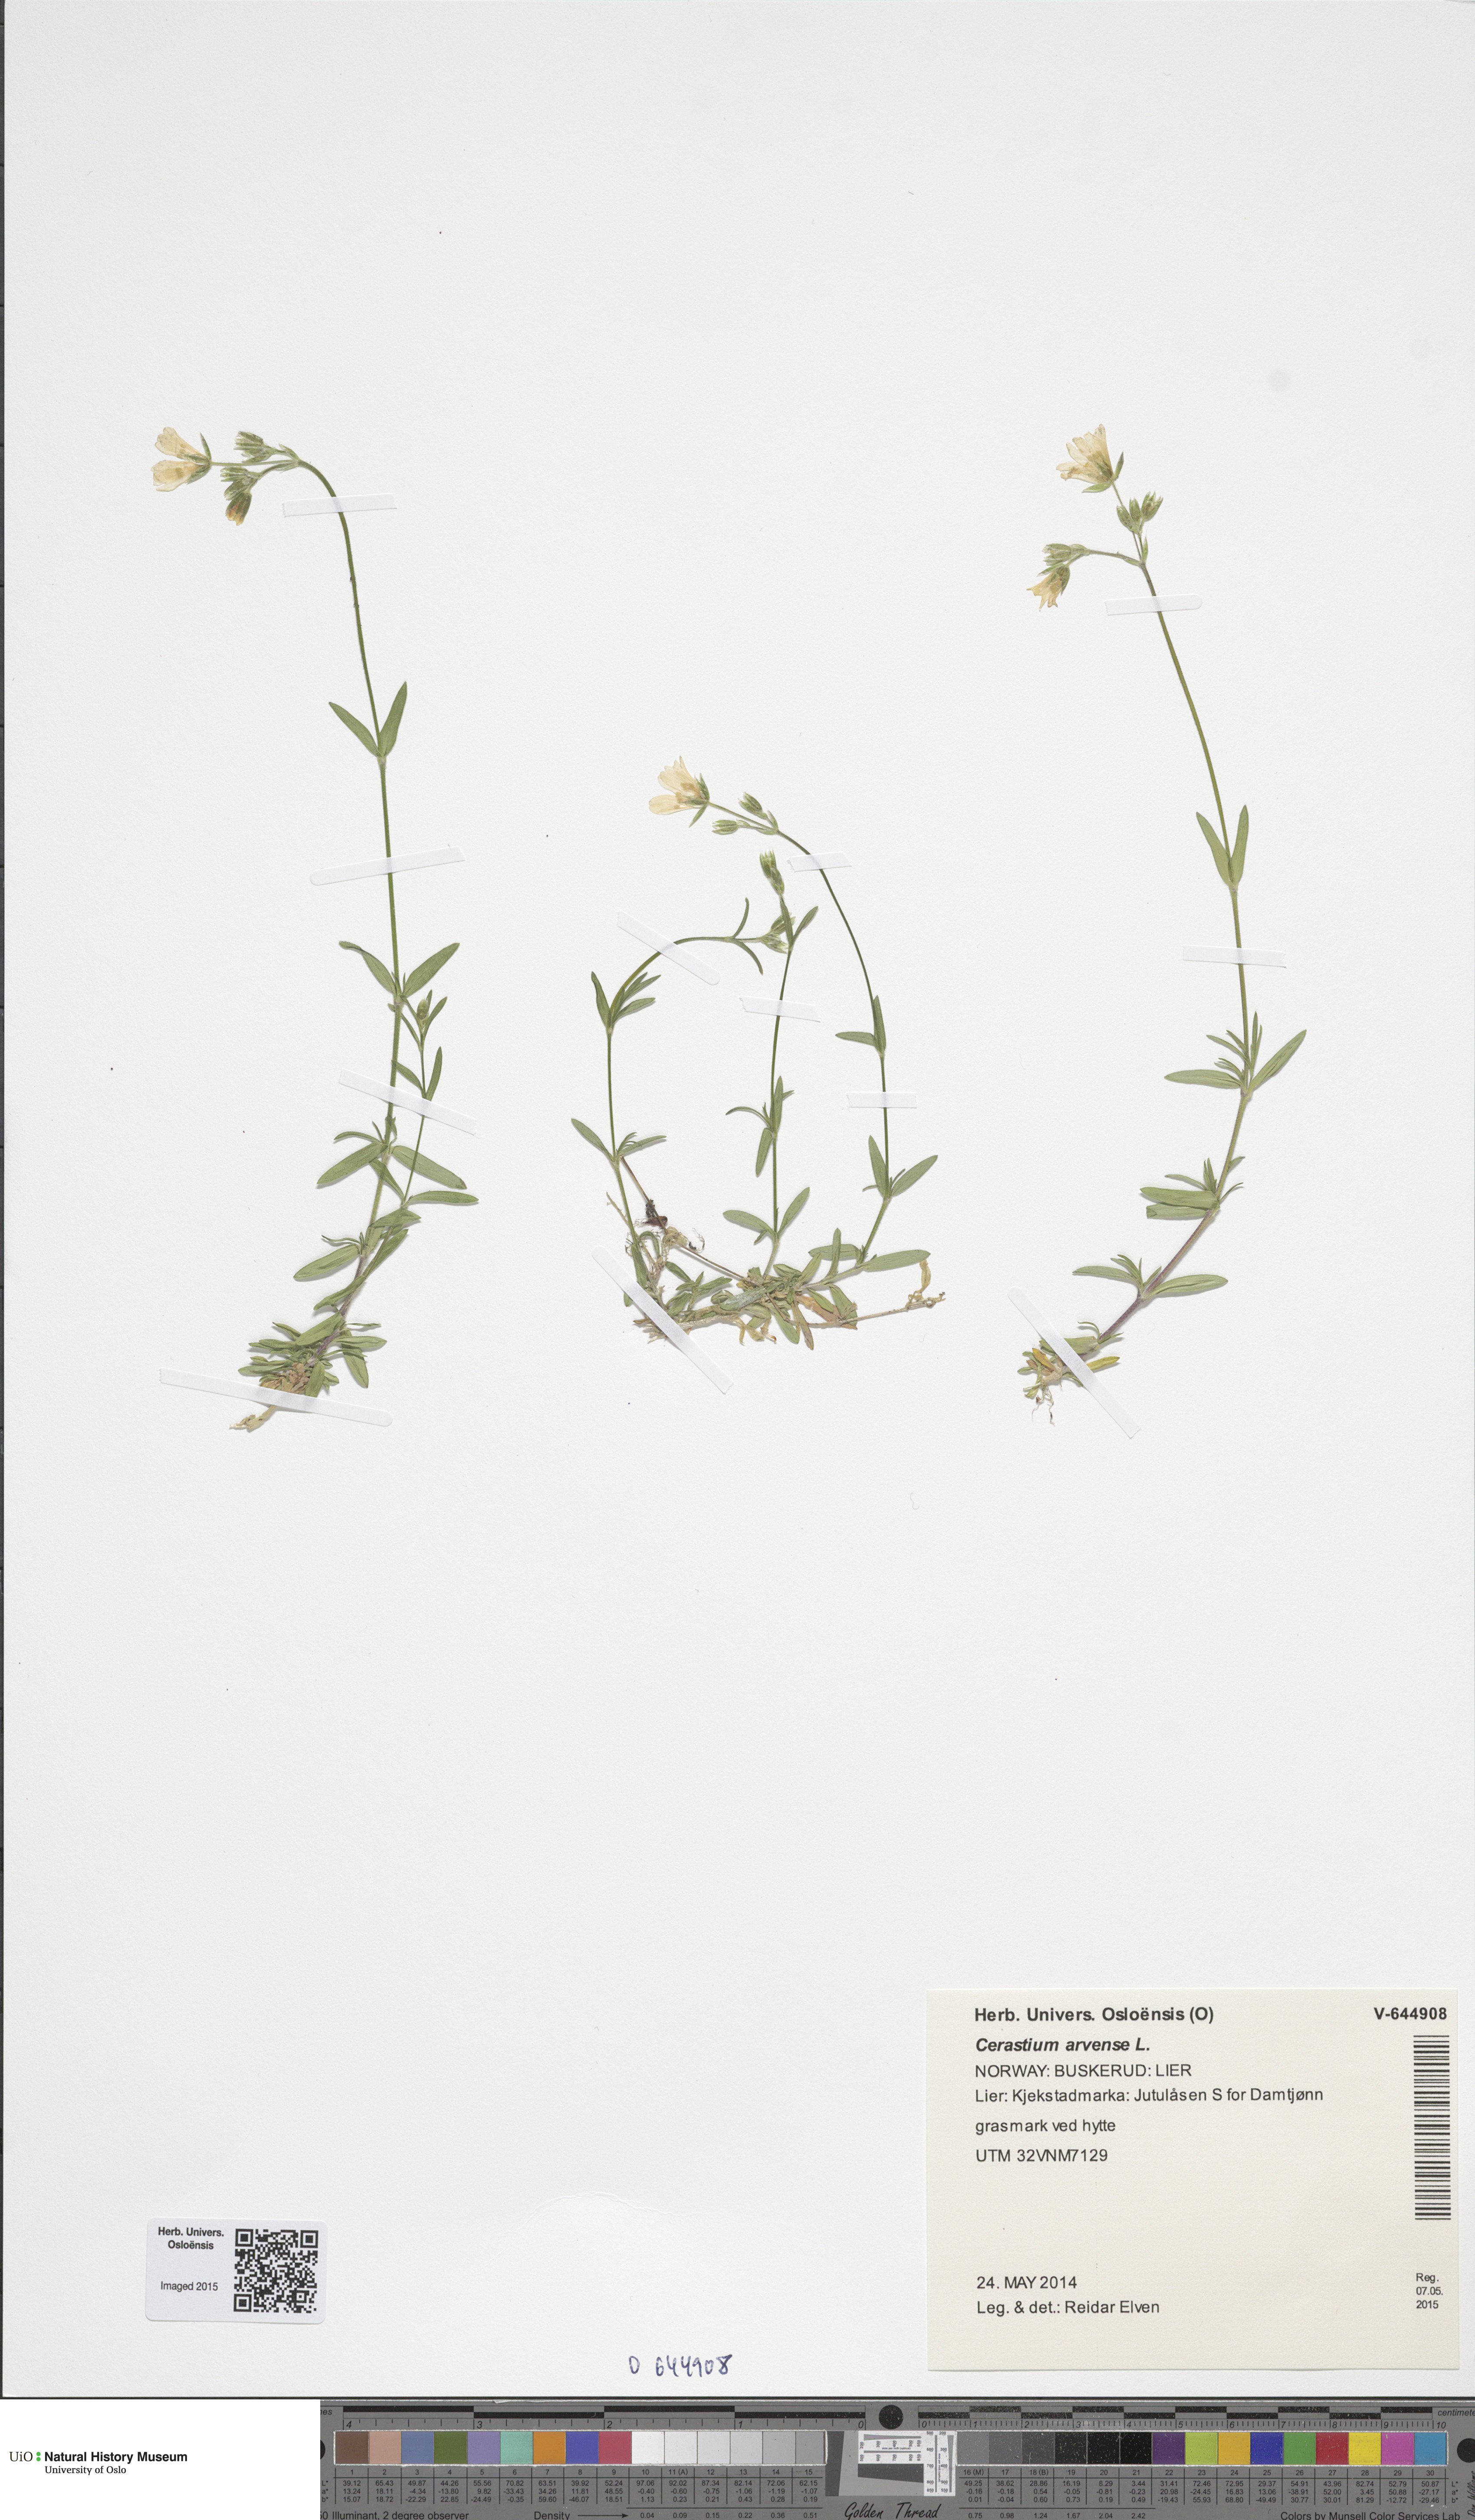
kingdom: Plantae
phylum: Tracheophyta
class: Magnoliopsida
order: Caryophyllales
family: Caryophyllaceae
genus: Cerastium
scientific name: Cerastium arvense
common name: Field mouse-ear
